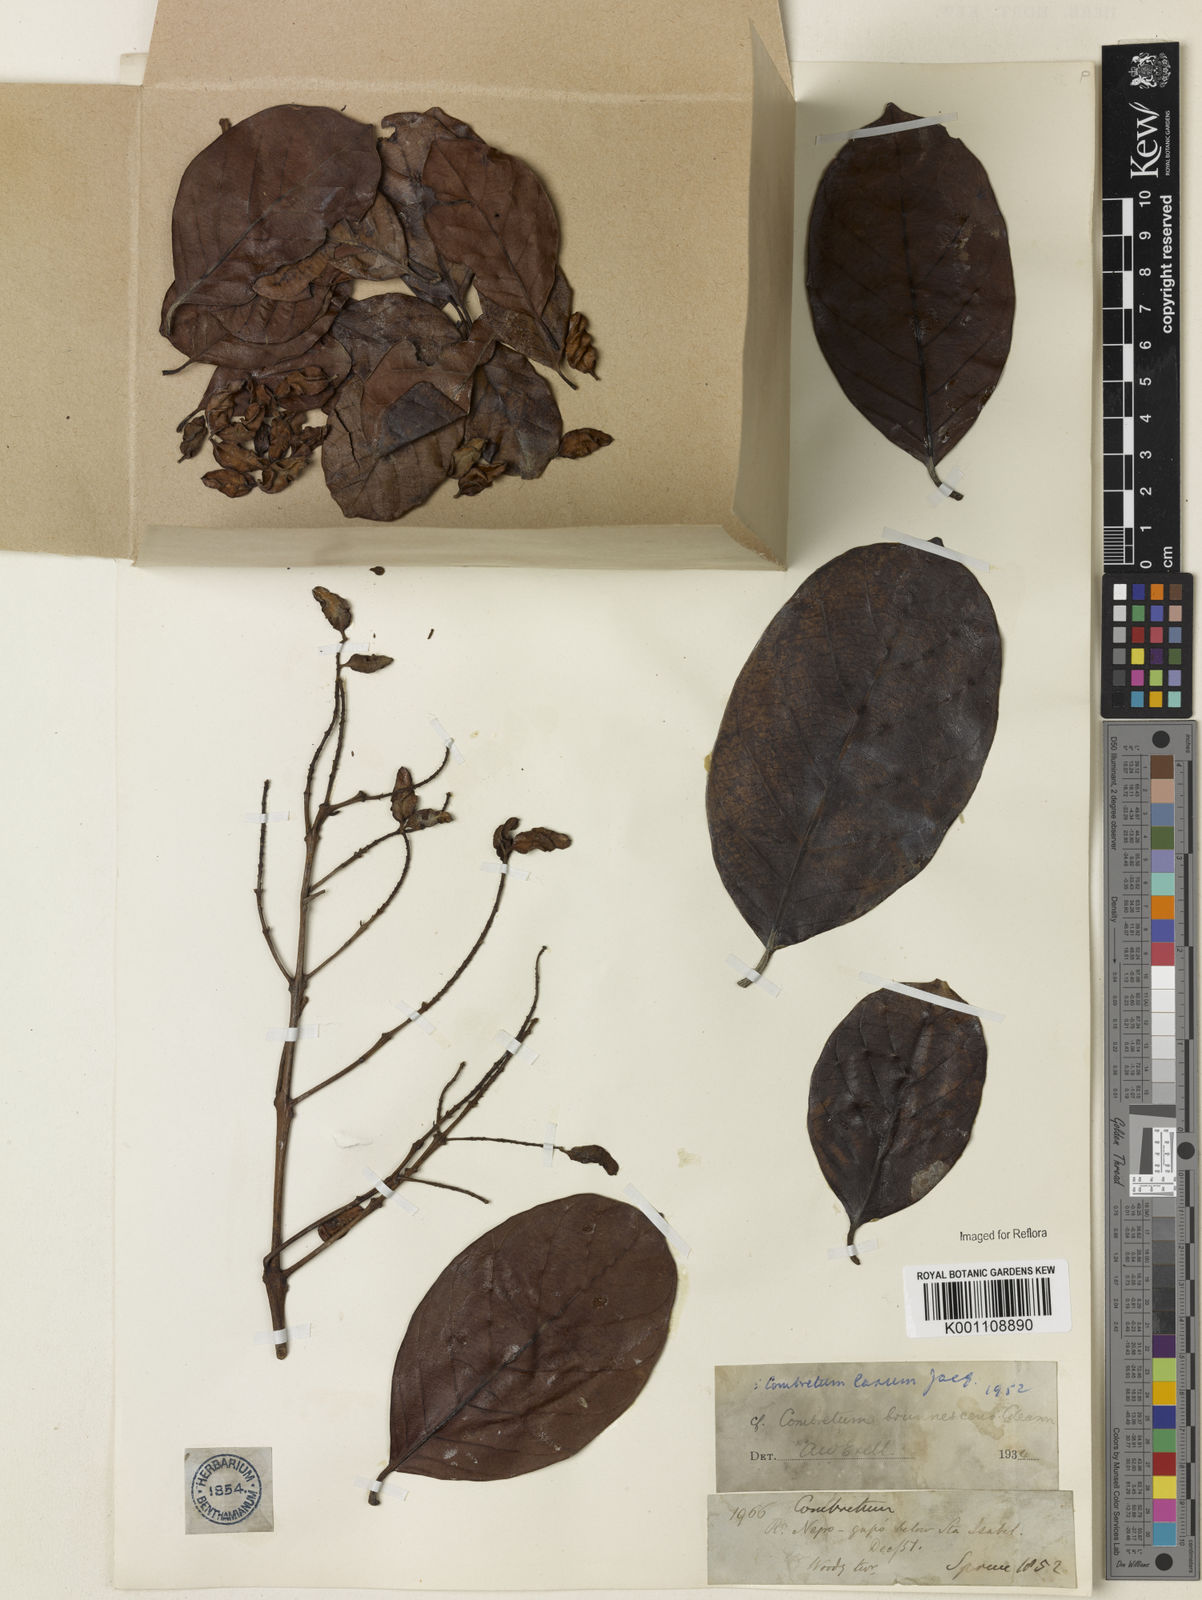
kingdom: Plantae
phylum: Tracheophyta
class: Magnoliopsida
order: Myrtales
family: Combretaceae
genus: Combretum
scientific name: Combretum laxum
